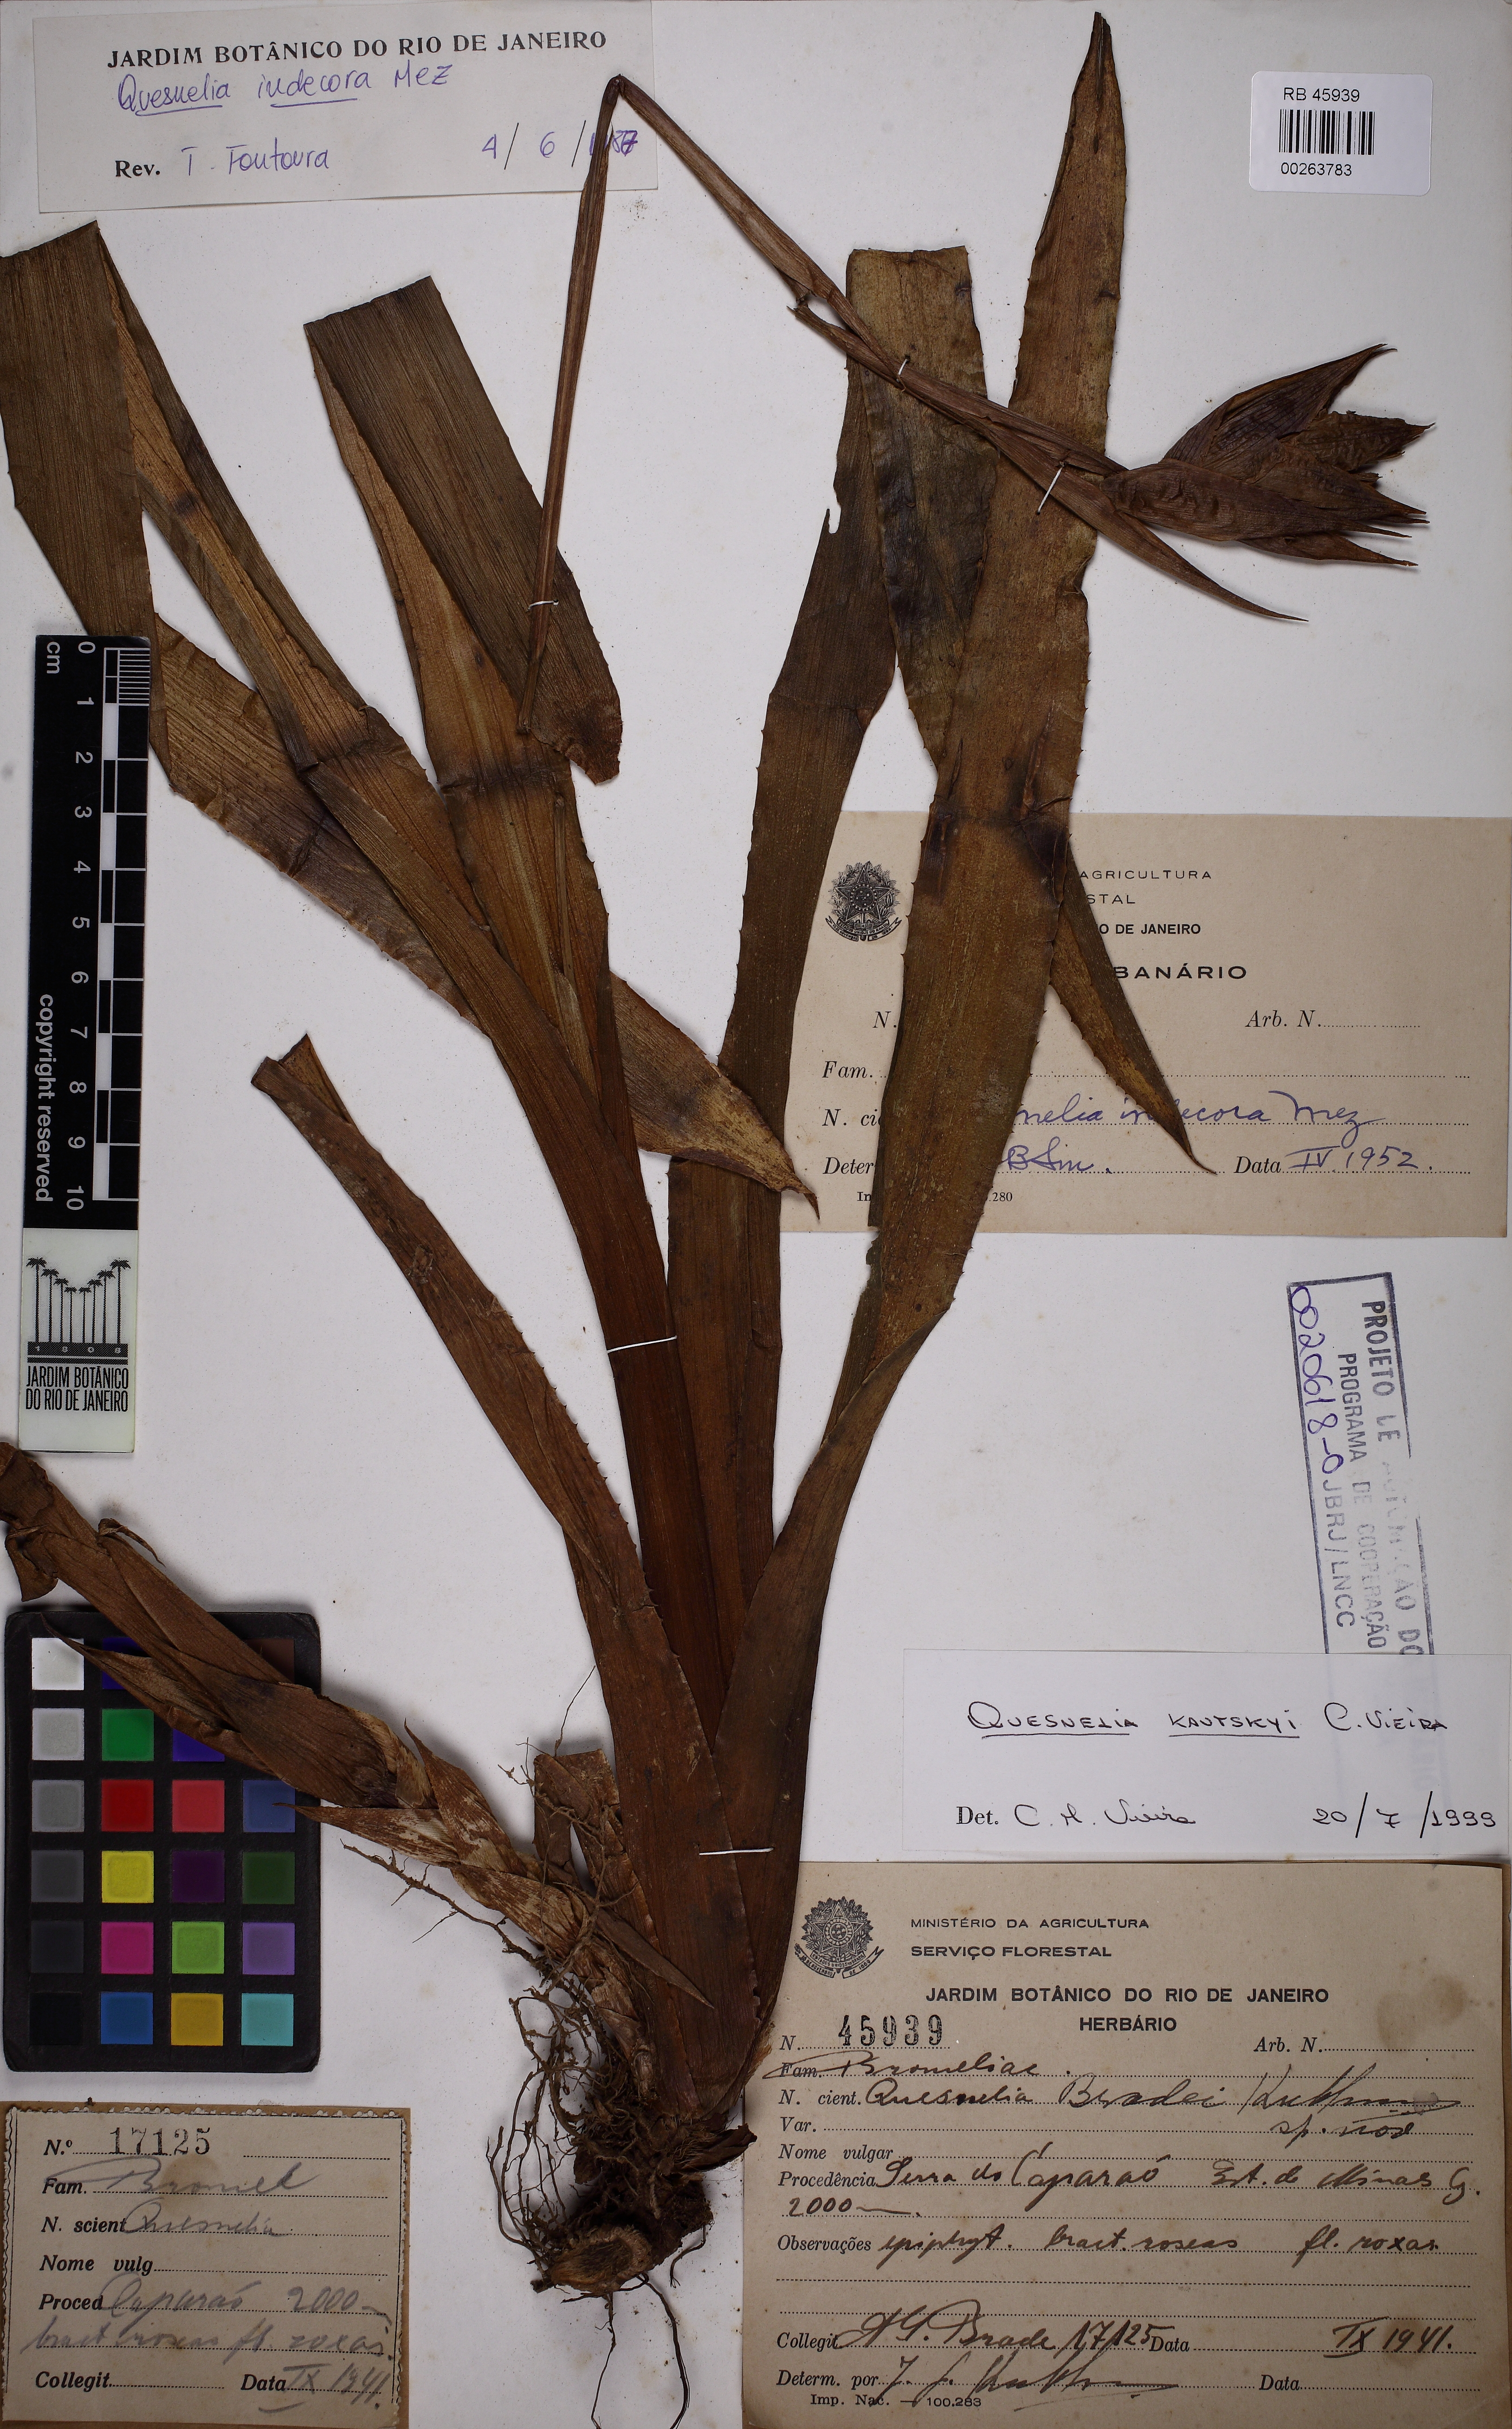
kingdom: Plantae
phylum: Tracheophyta
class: Liliopsida
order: Poales
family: Bromeliaceae
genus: Quesnelia
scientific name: Quesnelia kautskyi
